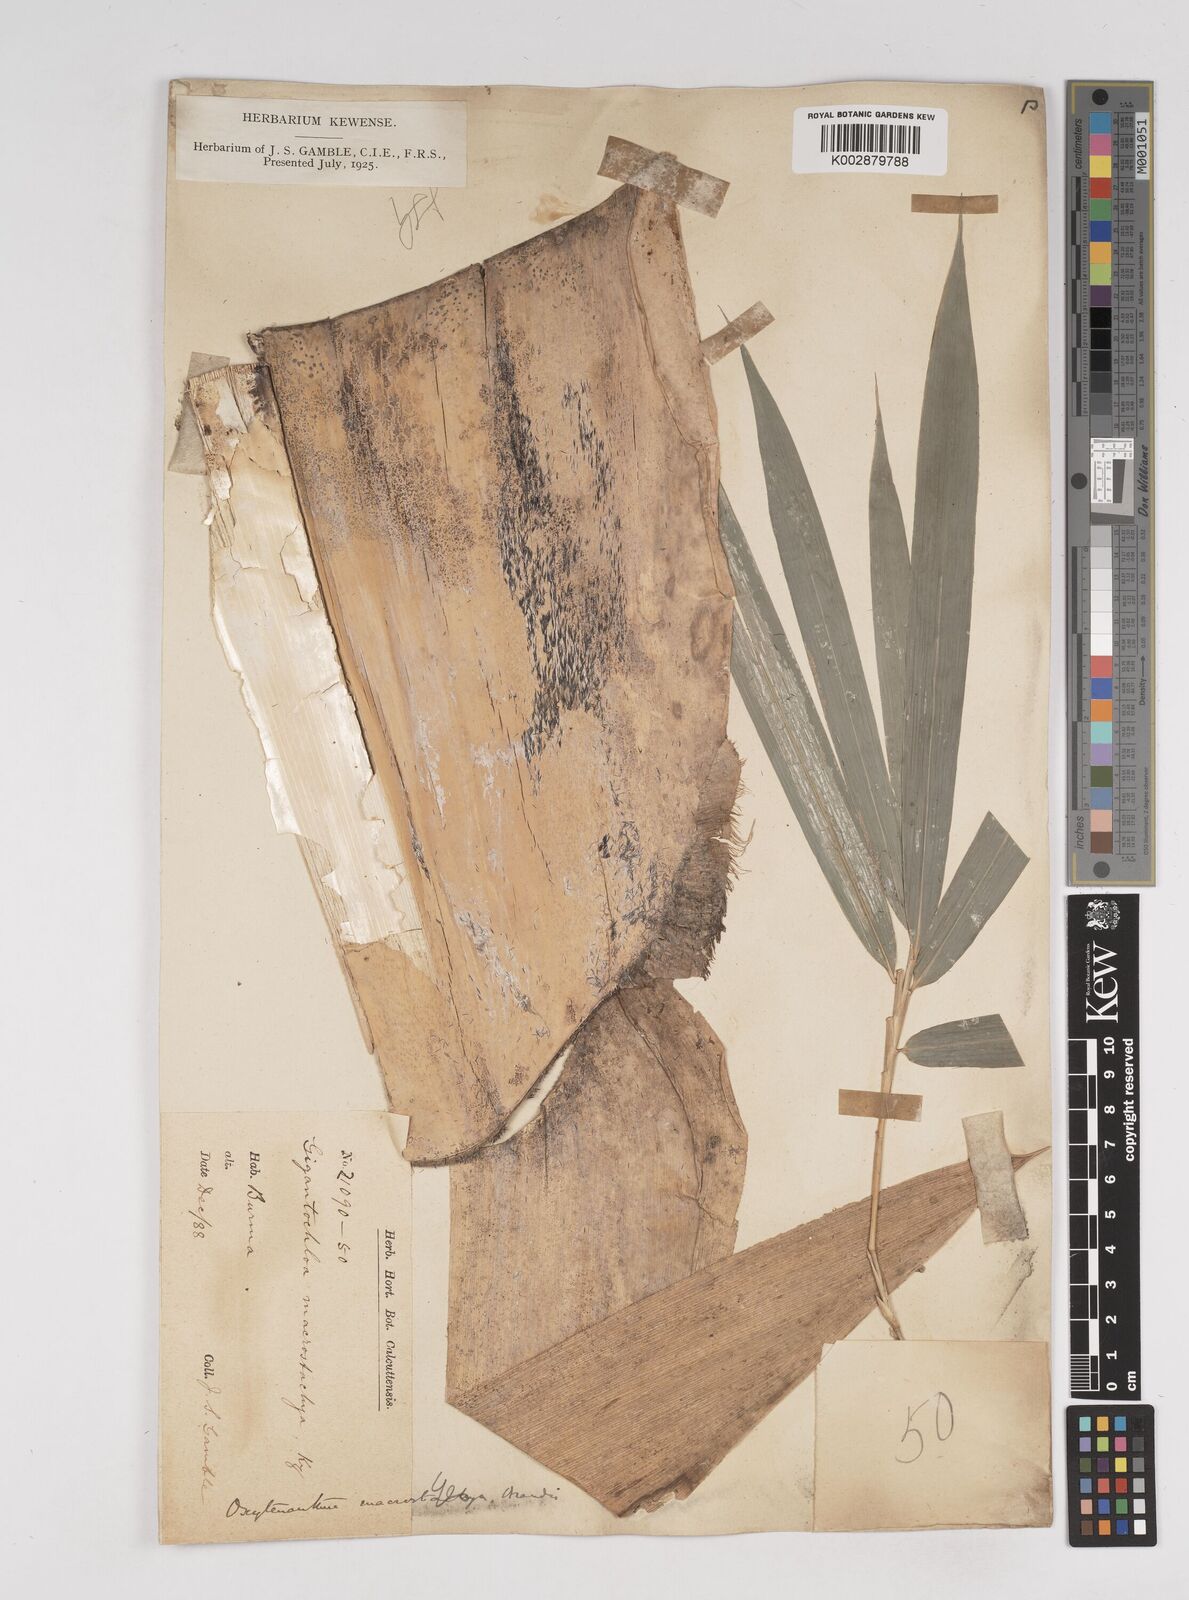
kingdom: Plantae
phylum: Tracheophyta
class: Liliopsida
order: Poales
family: Poaceae
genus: Gigantochloa
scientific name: Gigantochloa macrostachya
